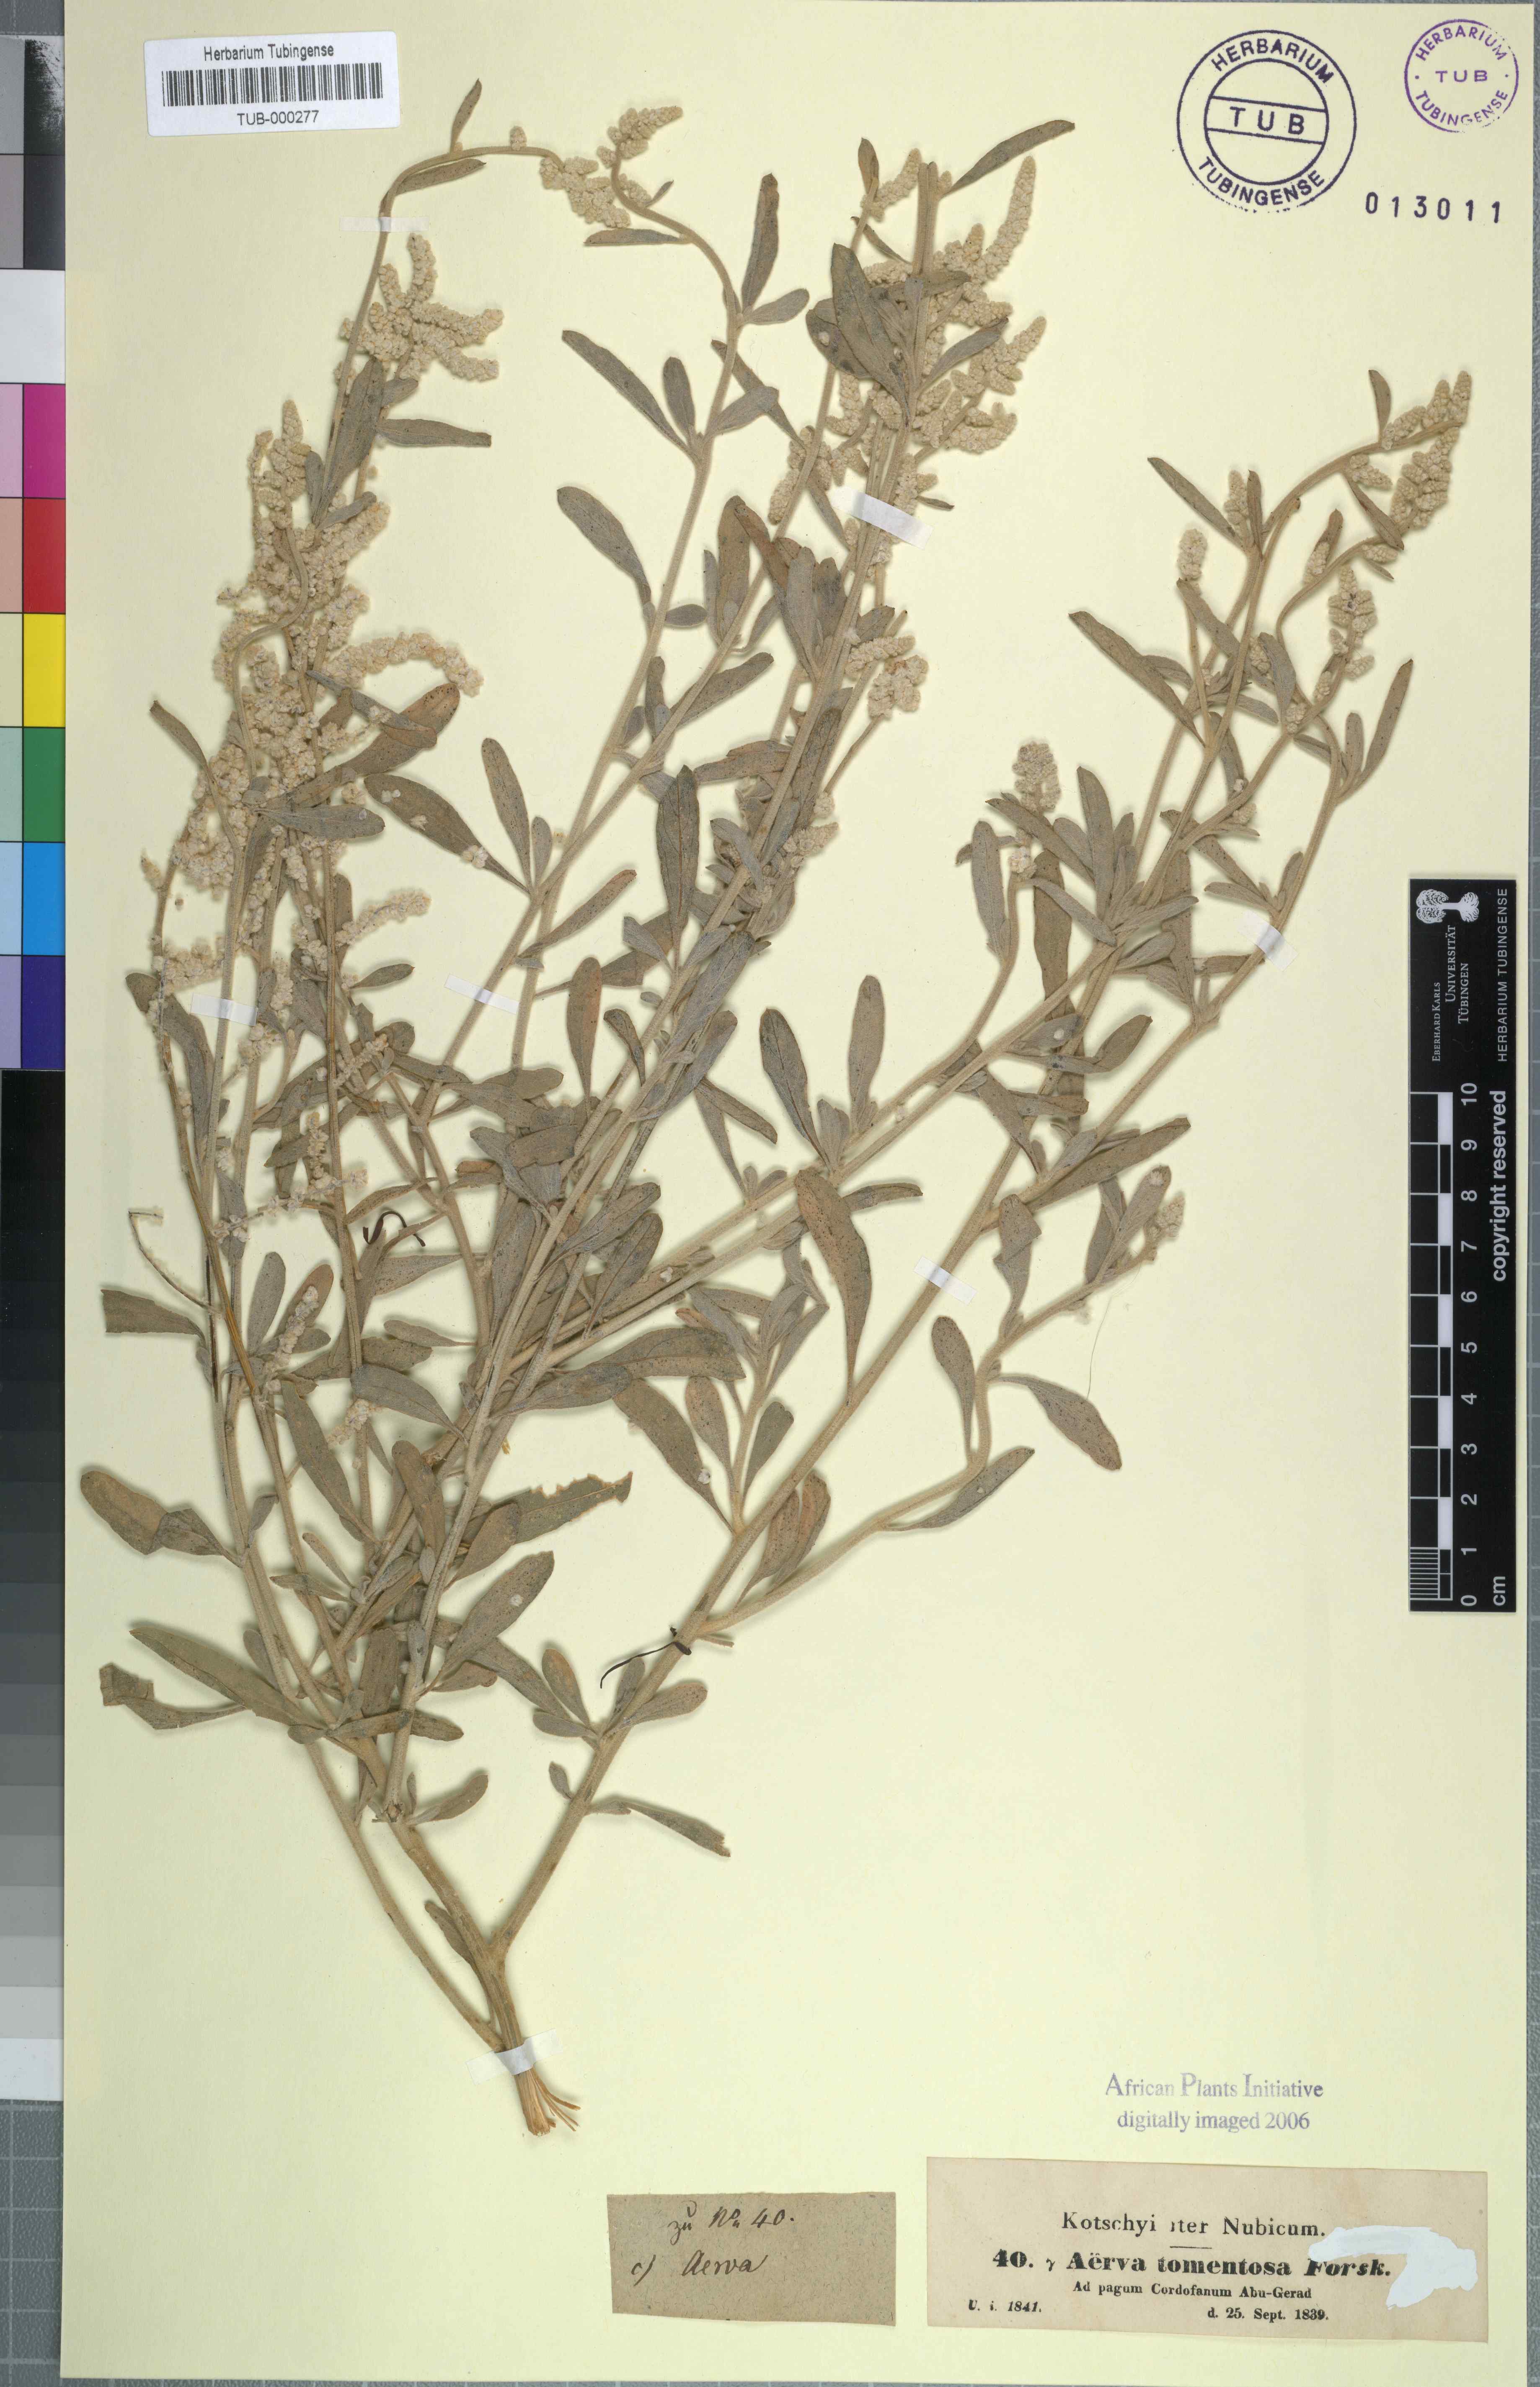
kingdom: Plantae
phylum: Tracheophyta
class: Magnoliopsida
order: Caryophyllales
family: Amaranthaceae
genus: Aerva
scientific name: Aerva javanica
